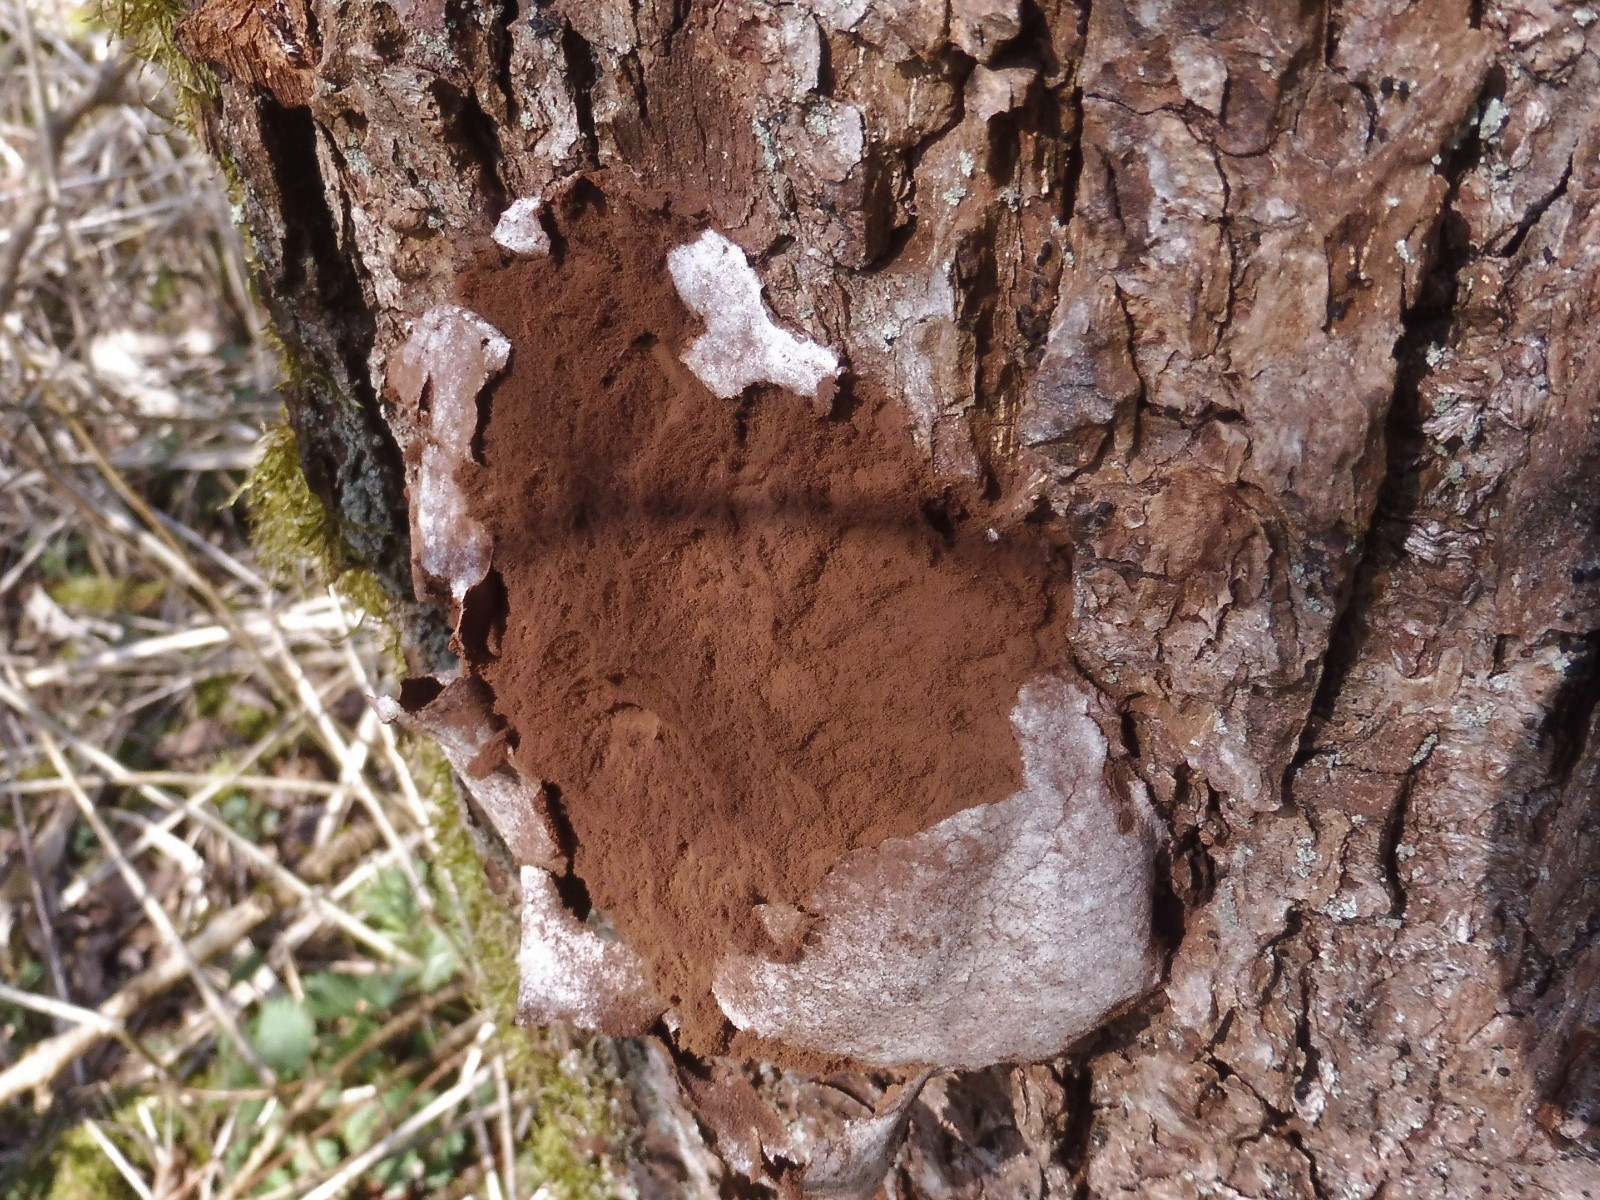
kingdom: Protozoa
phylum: Mycetozoa
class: Myxomycetes
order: Cribrariales
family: Tubiferaceae
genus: Reticularia
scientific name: Reticularia lycoperdon
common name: skinnende støvpude
